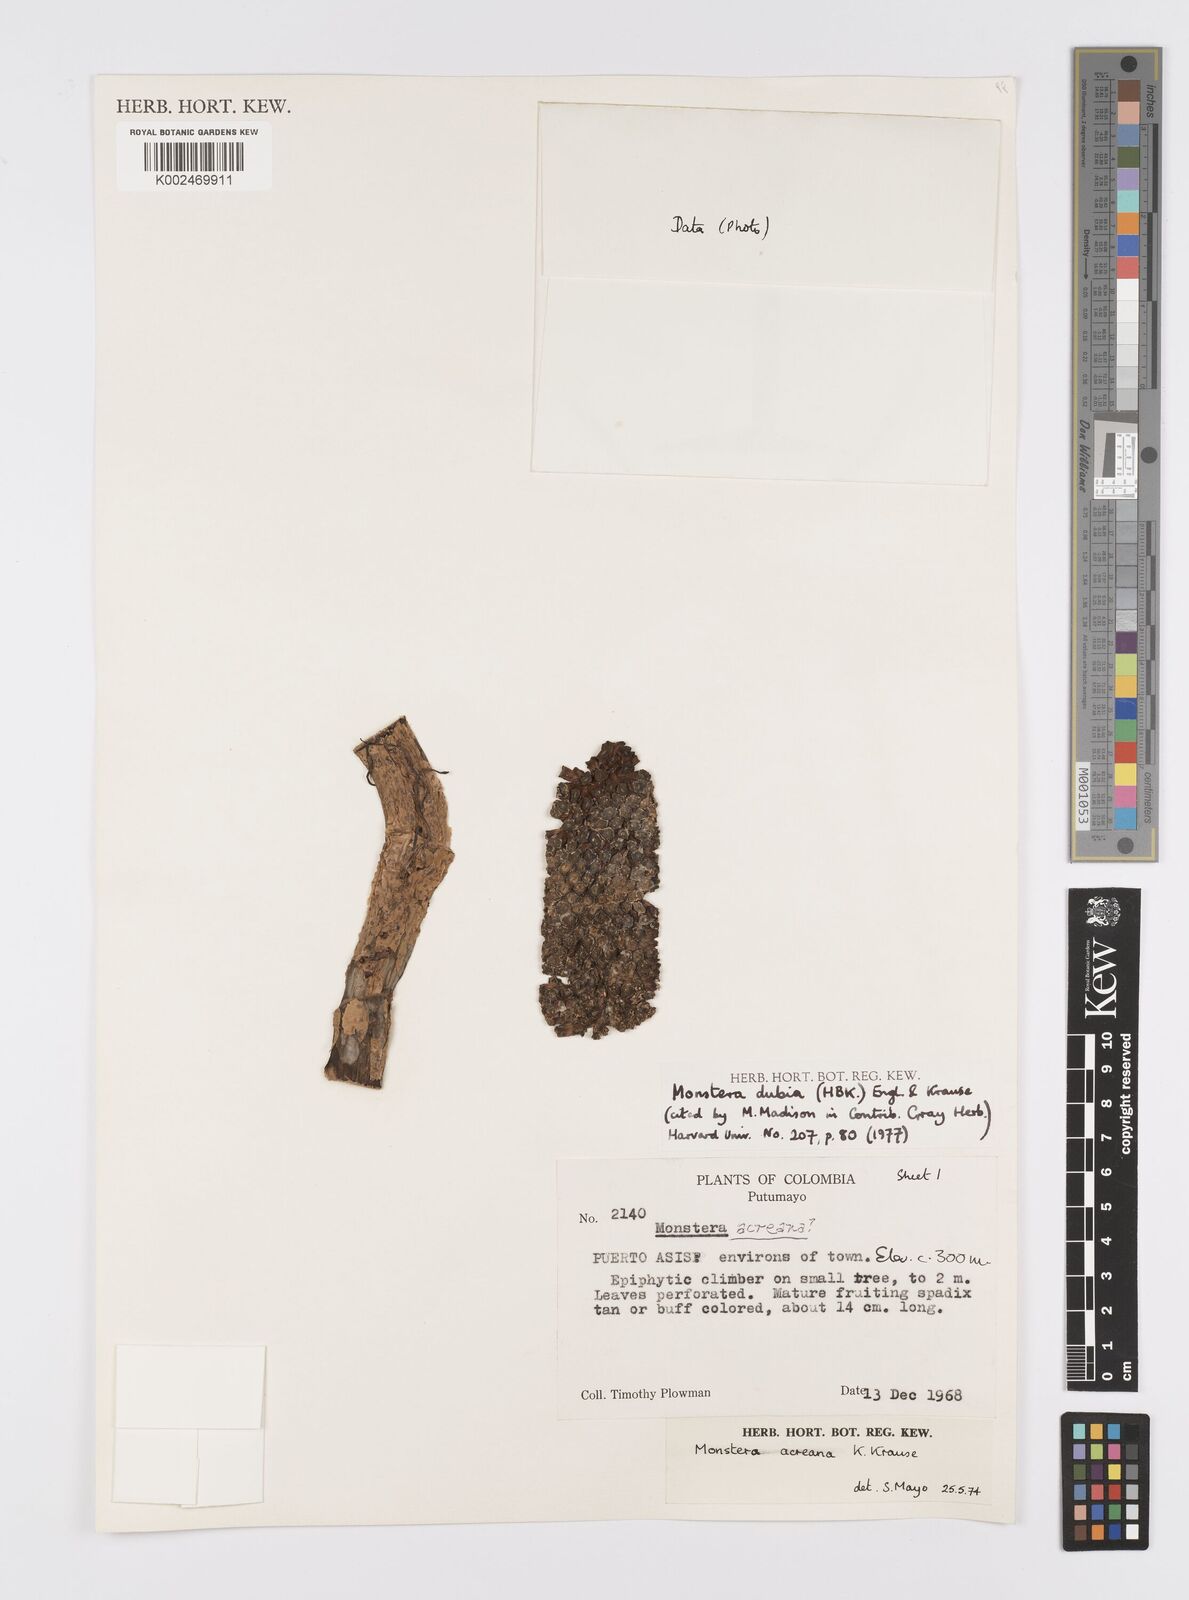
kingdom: Plantae
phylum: Tracheophyta
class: Liliopsida
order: Alismatales
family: Araceae
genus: Monstera
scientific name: Monstera dubia
